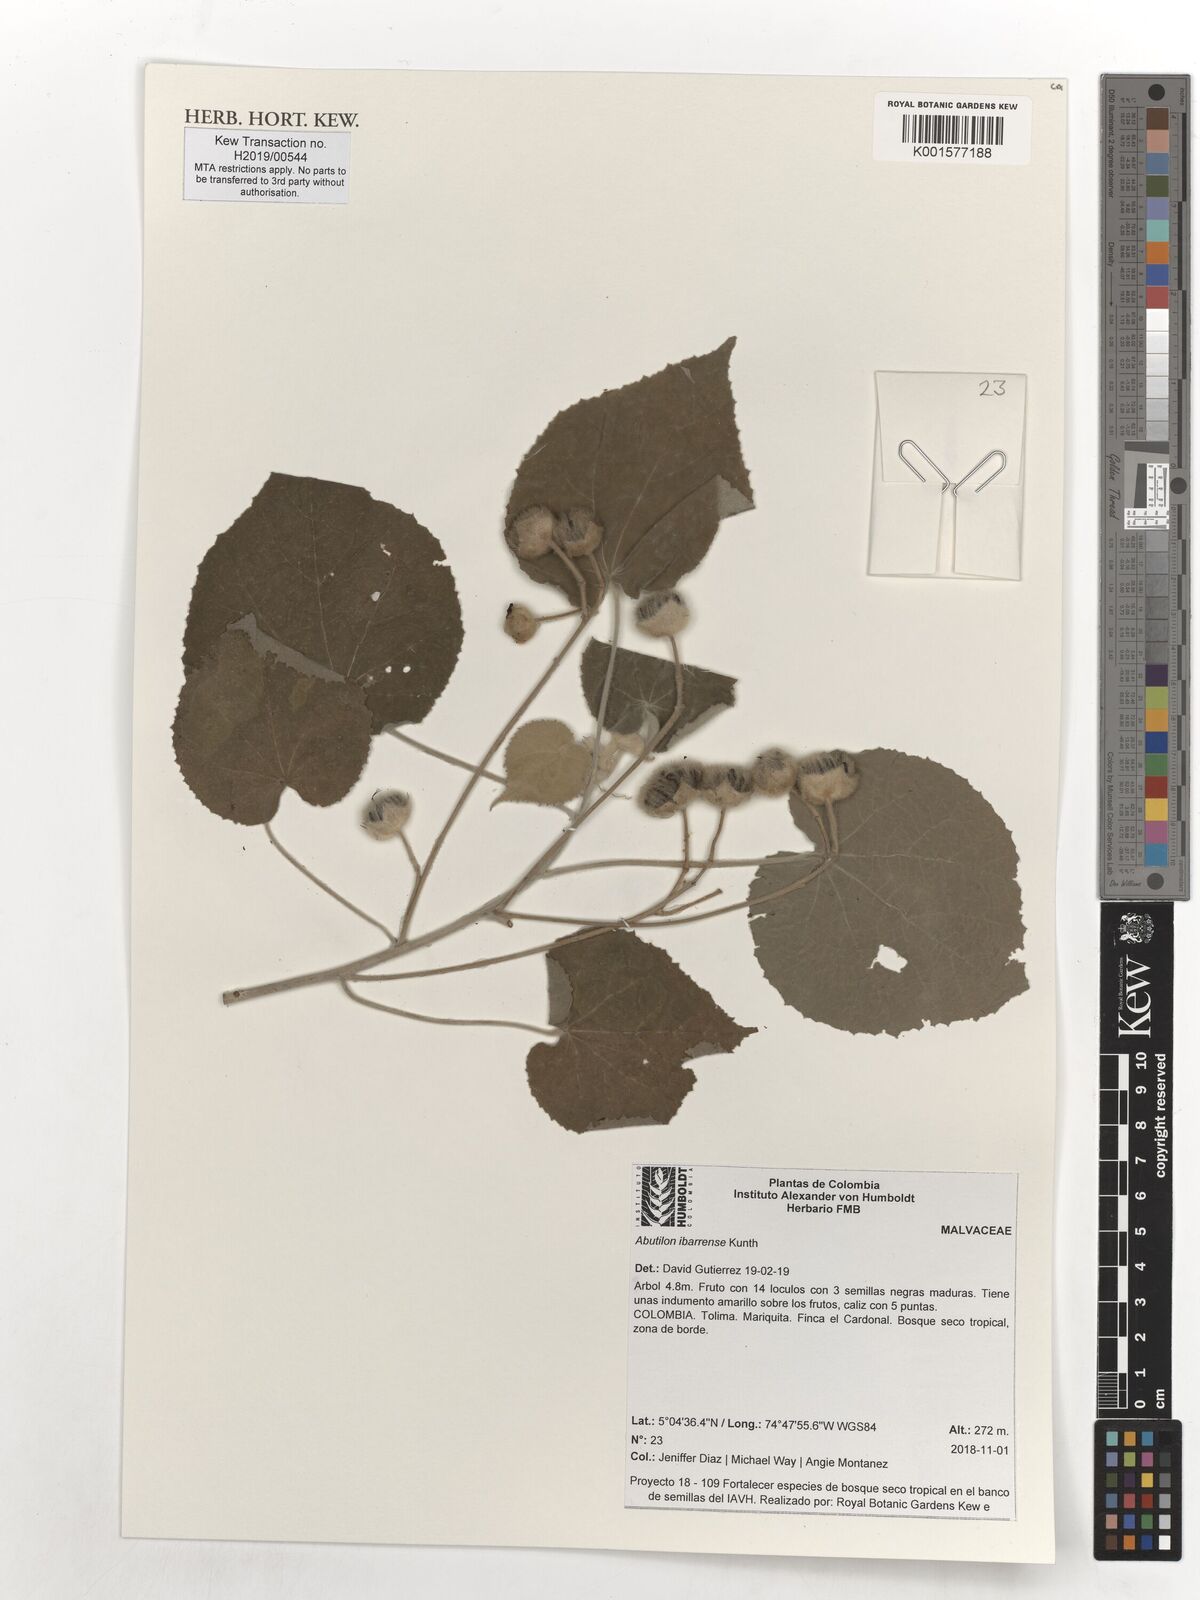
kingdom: Plantae
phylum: Tracheophyta
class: Magnoliopsida
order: Malvales
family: Malvaceae
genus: Abutilon
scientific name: Abutilon ibarrense
